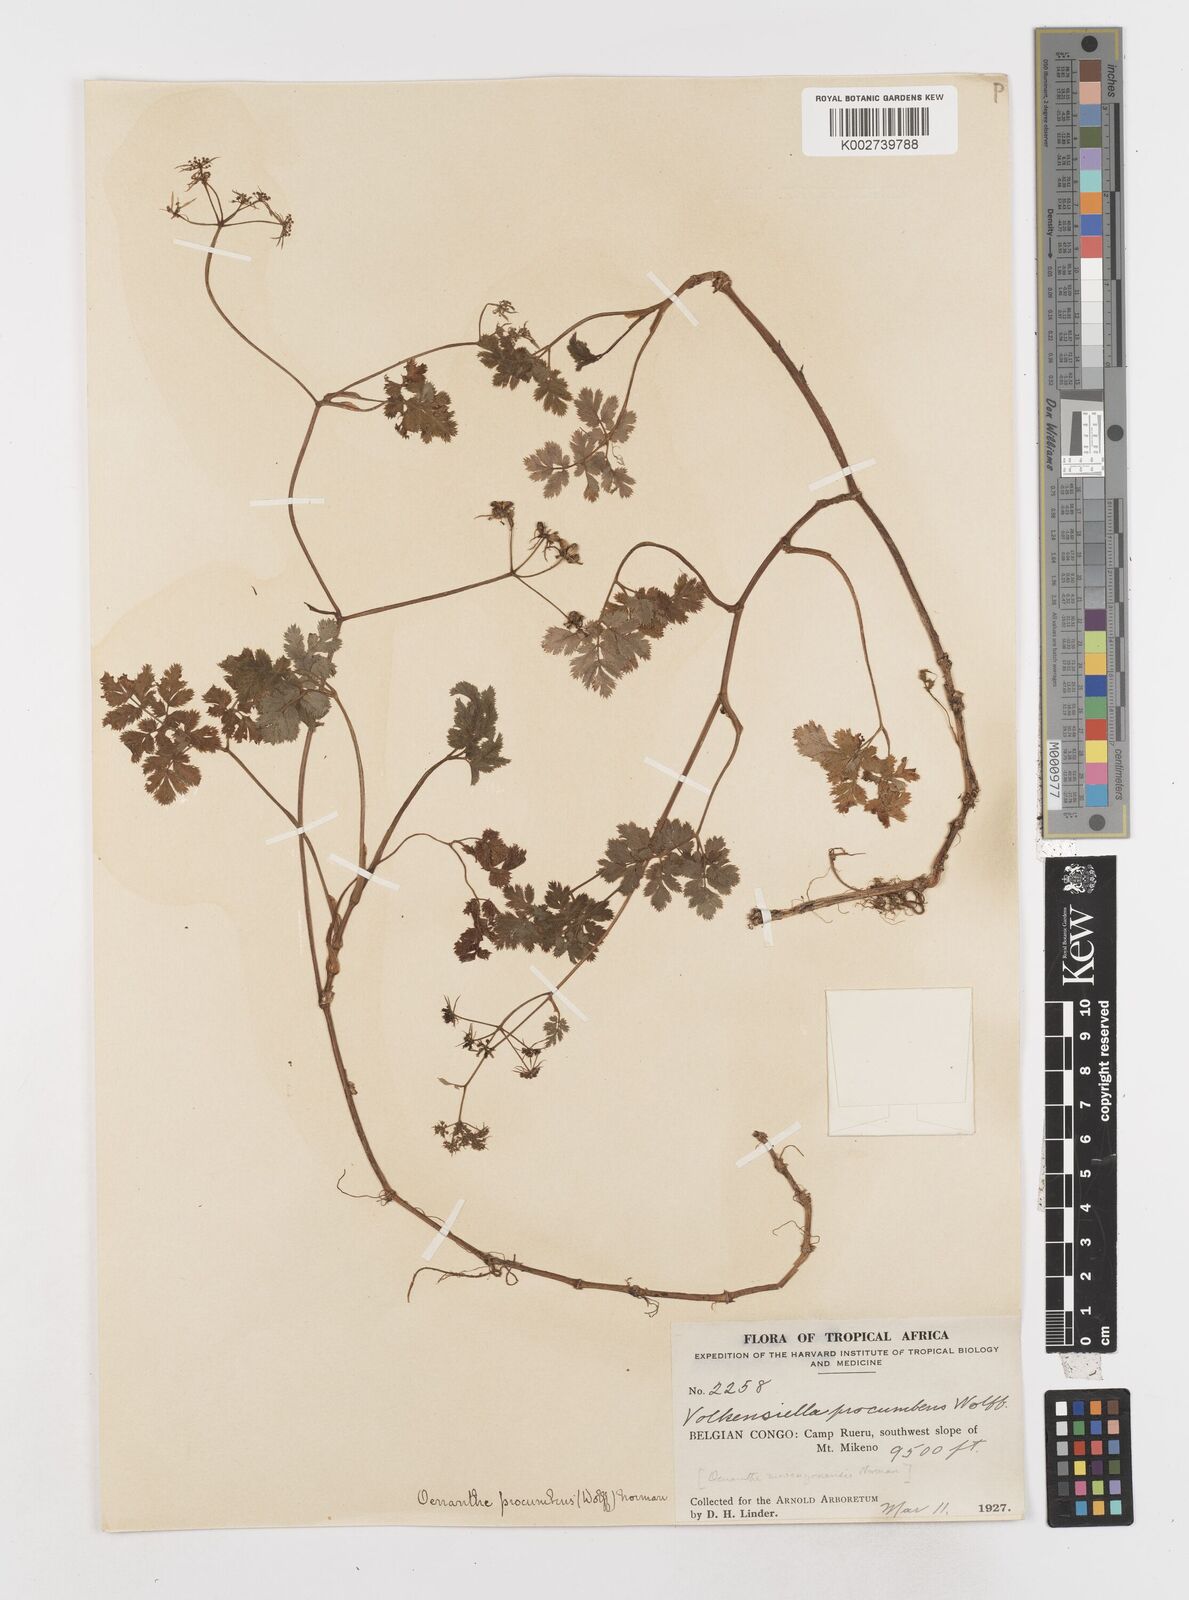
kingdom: Plantae
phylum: Tracheophyta
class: Magnoliopsida
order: Apiales
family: Apiaceae
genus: Oenanthe
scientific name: Oenanthe procumbens
